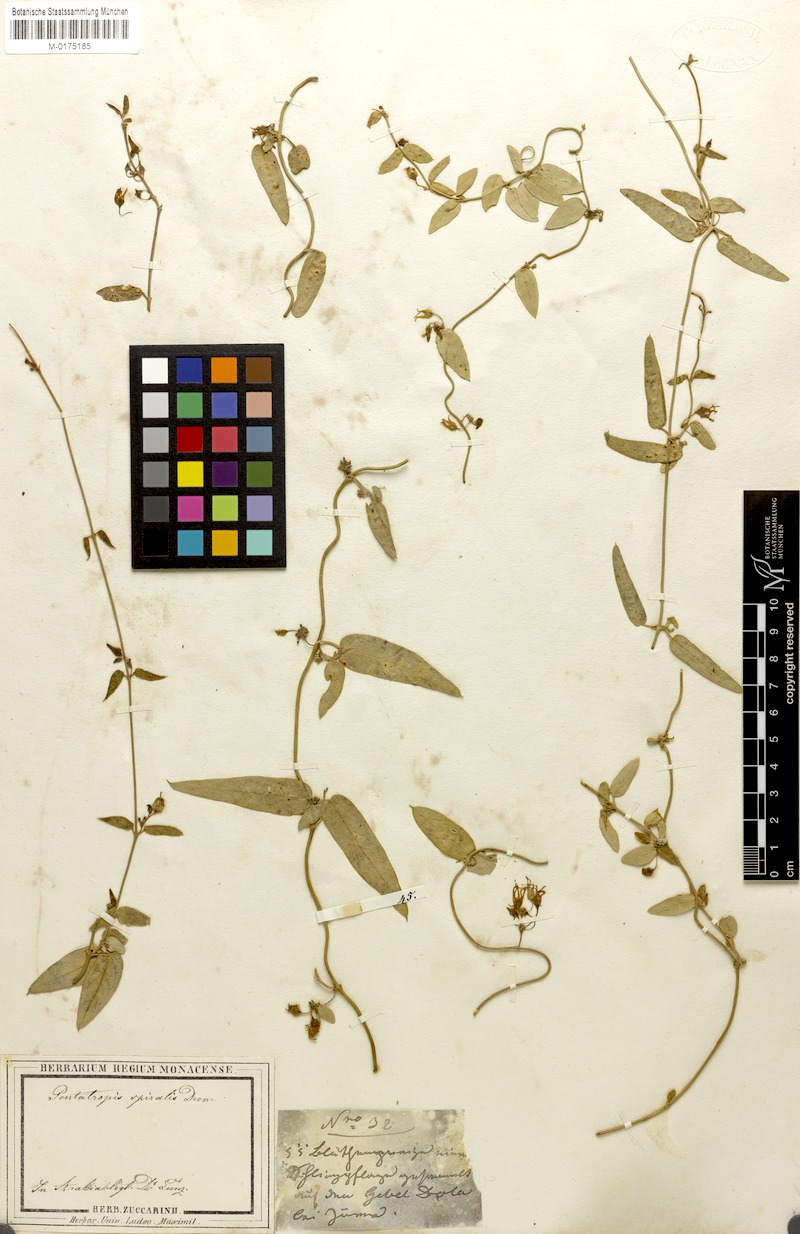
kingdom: Plantae
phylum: Tracheophyta
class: Magnoliopsida
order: Gentianales
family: Apocynaceae
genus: Vincetoxicum
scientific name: Vincetoxicum spirale
